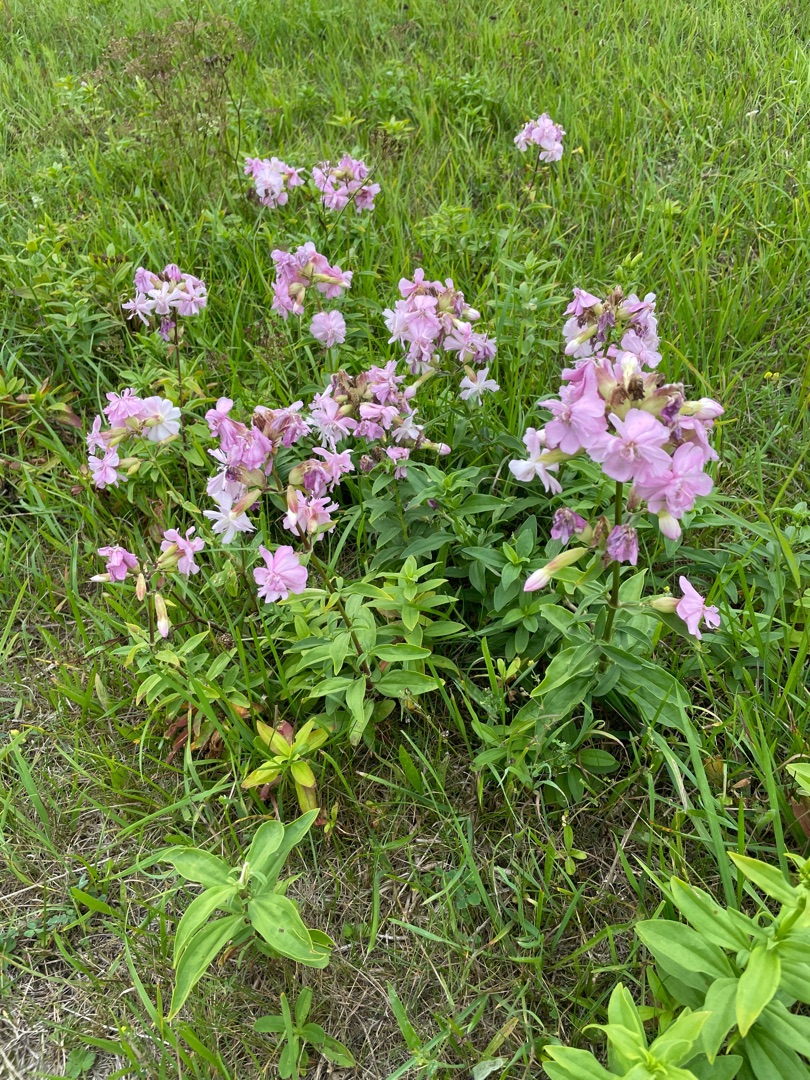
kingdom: Plantae
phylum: Tracheophyta
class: Magnoliopsida
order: Caryophyllales
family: Caryophyllaceae
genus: Saponaria
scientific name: Saponaria officinalis
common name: Sæbeurt
